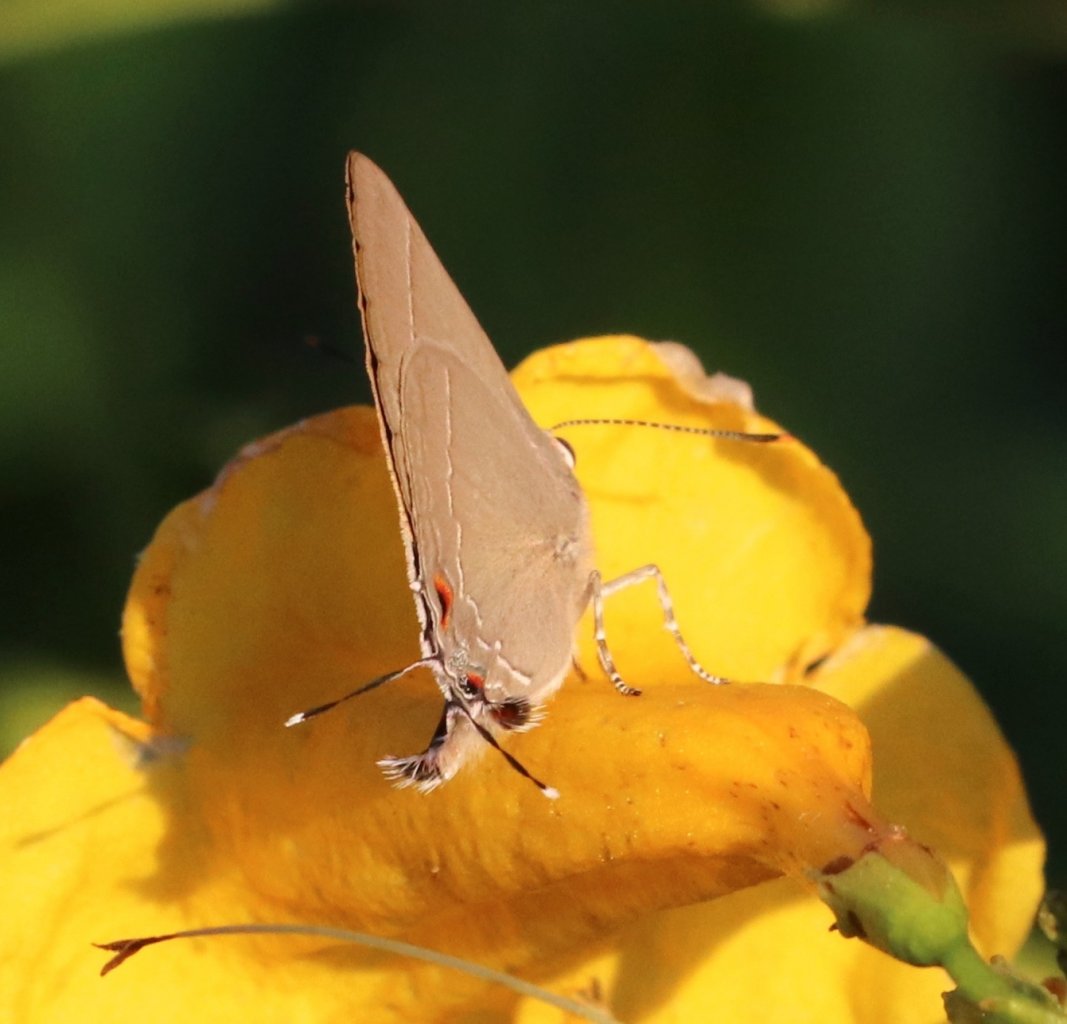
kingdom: Animalia
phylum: Arthropoda
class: Insecta
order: Lepidoptera
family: Lycaenidae
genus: Thecla
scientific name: Thecla marius
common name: Marius Hairstreak
